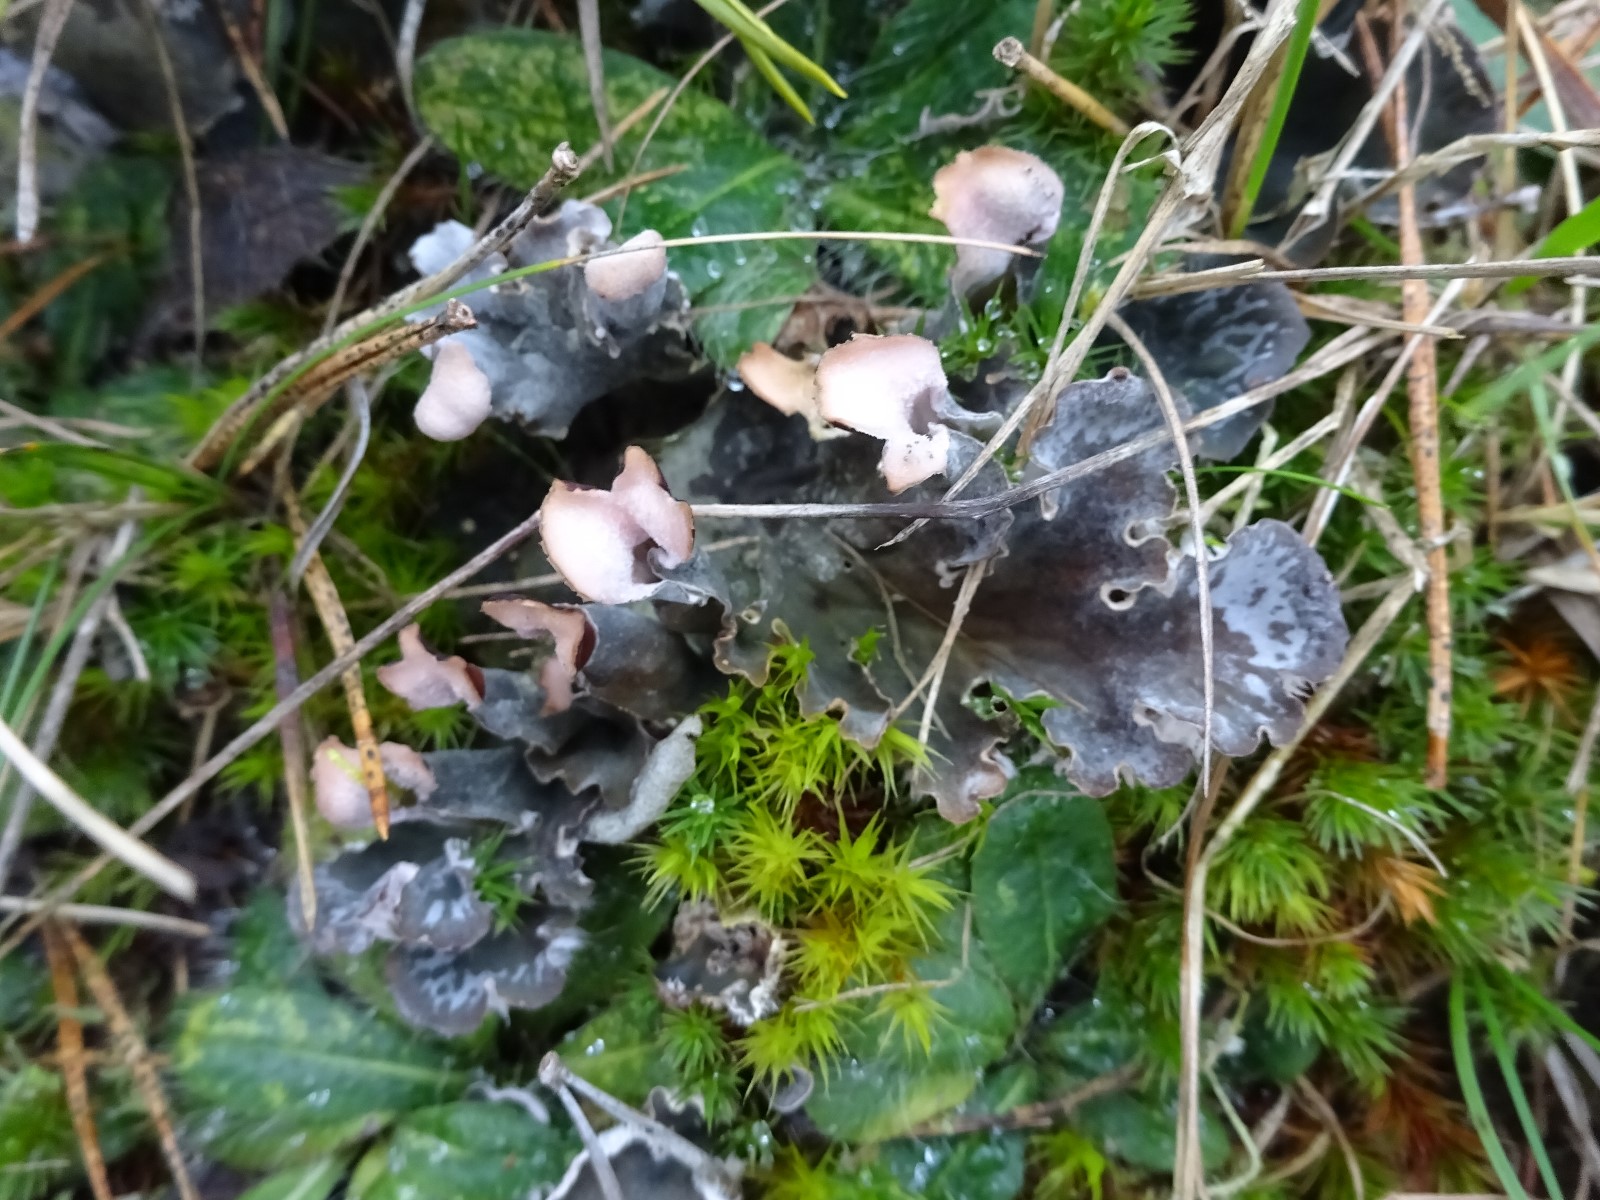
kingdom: Fungi
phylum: Ascomycota
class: Lecanoromycetes
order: Peltigerales
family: Peltigeraceae
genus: Peltigera
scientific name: Peltigera membranacea
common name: tynd skjoldlav
